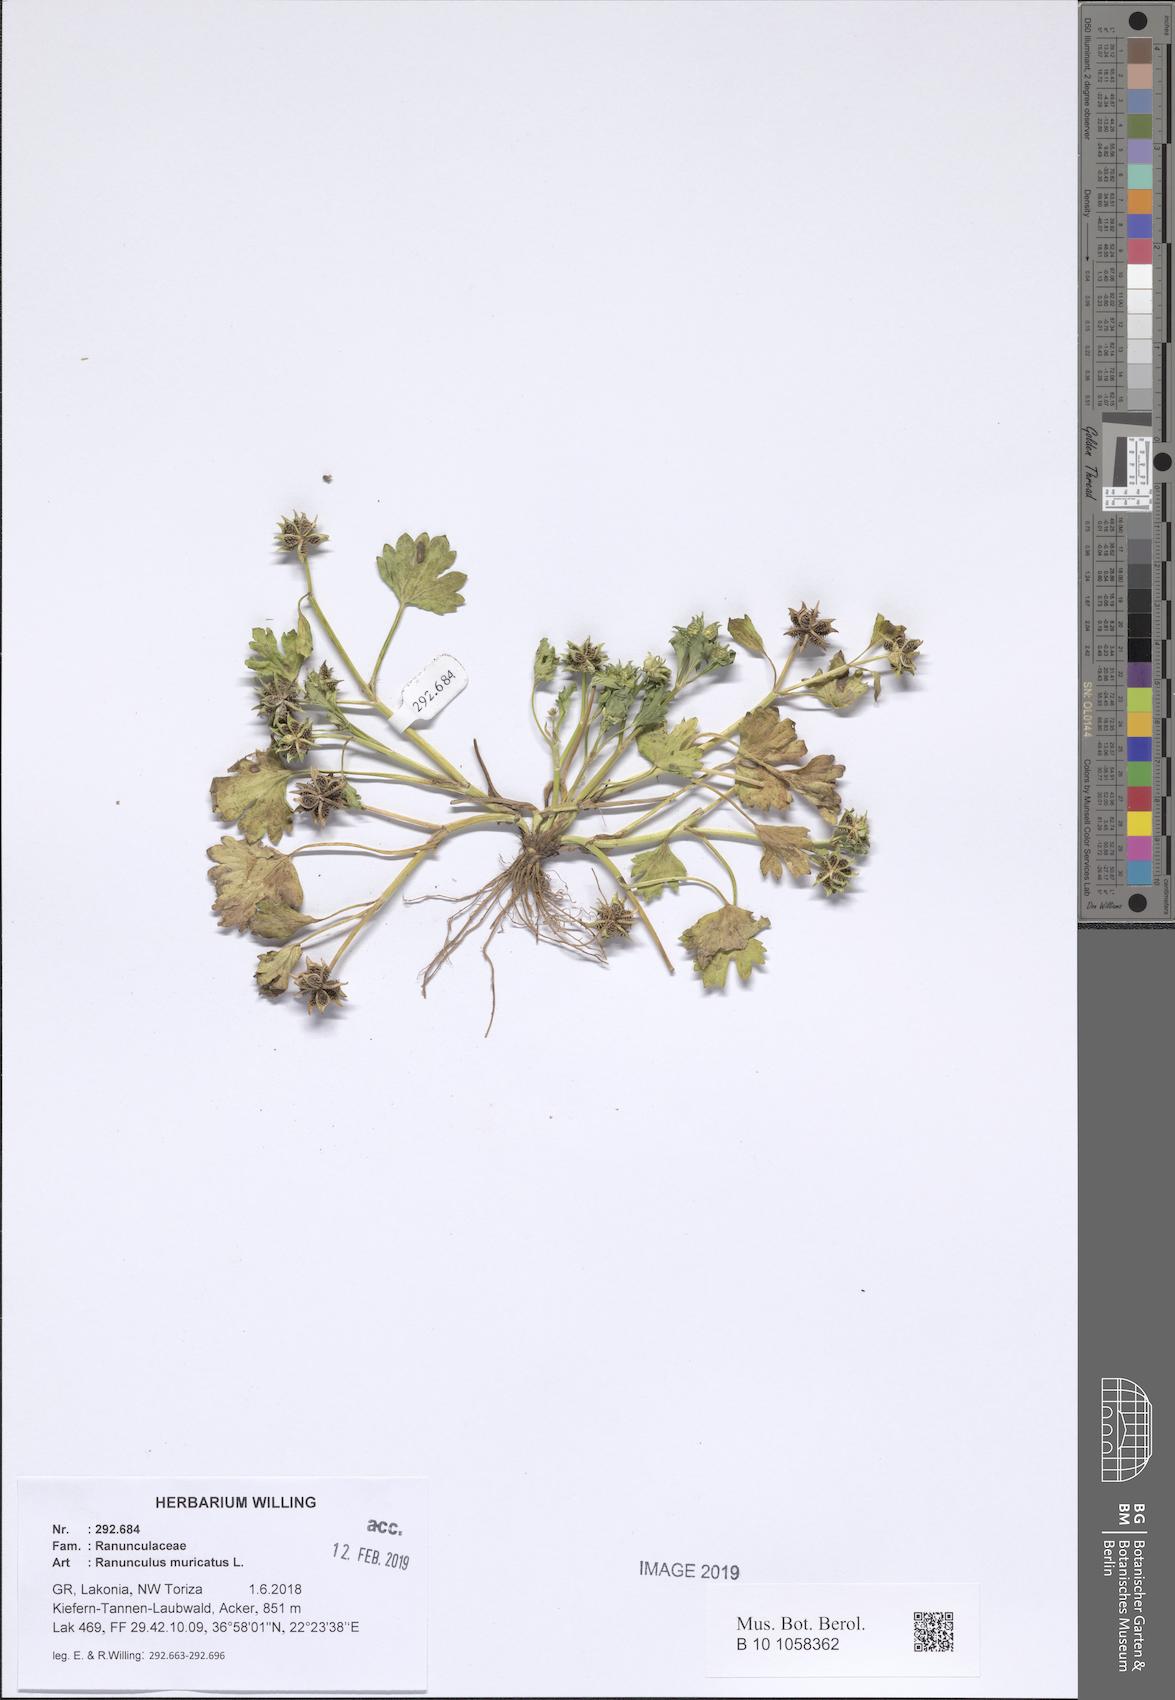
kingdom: Plantae
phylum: Tracheophyta
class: Magnoliopsida
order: Ranunculales
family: Ranunculaceae
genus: Ranunculus
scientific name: Ranunculus muricatus
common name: Rough-fruited buttercup
